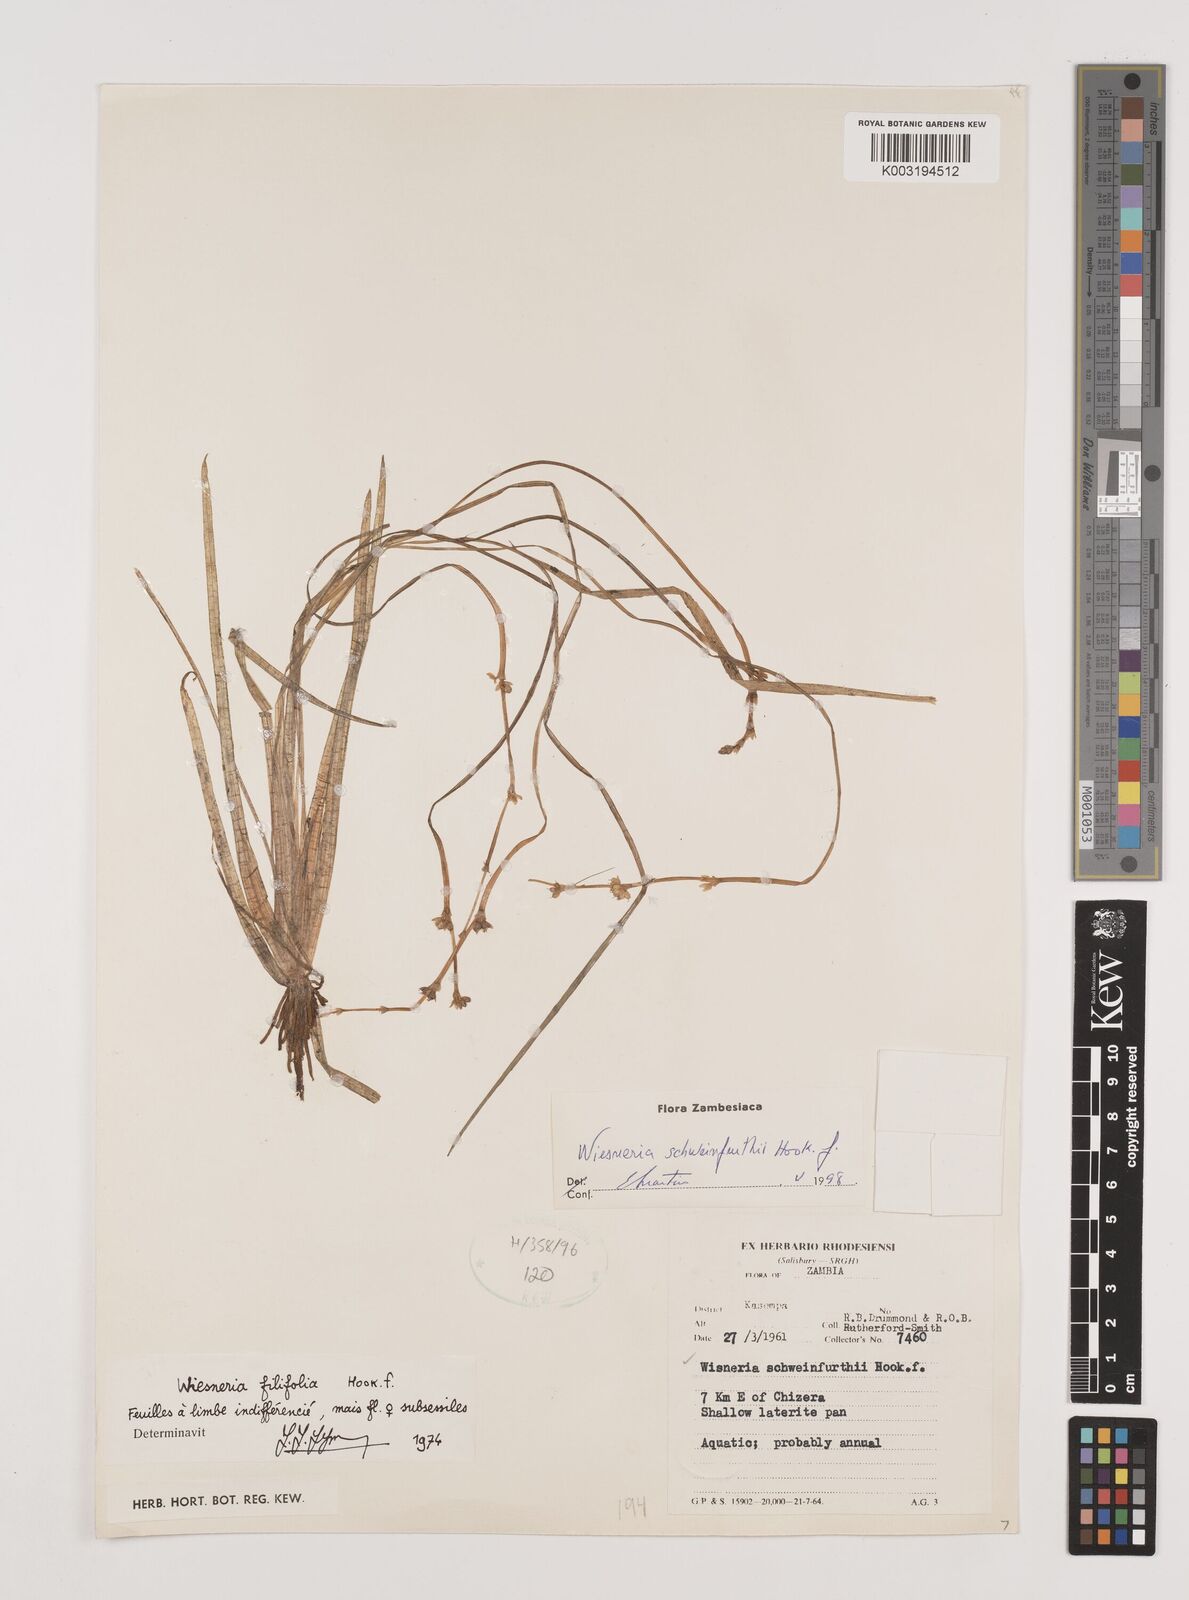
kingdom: Plantae
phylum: Tracheophyta
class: Liliopsida
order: Alismatales
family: Alismataceae
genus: Wiesneria
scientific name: Wiesneria schweinfurthii
